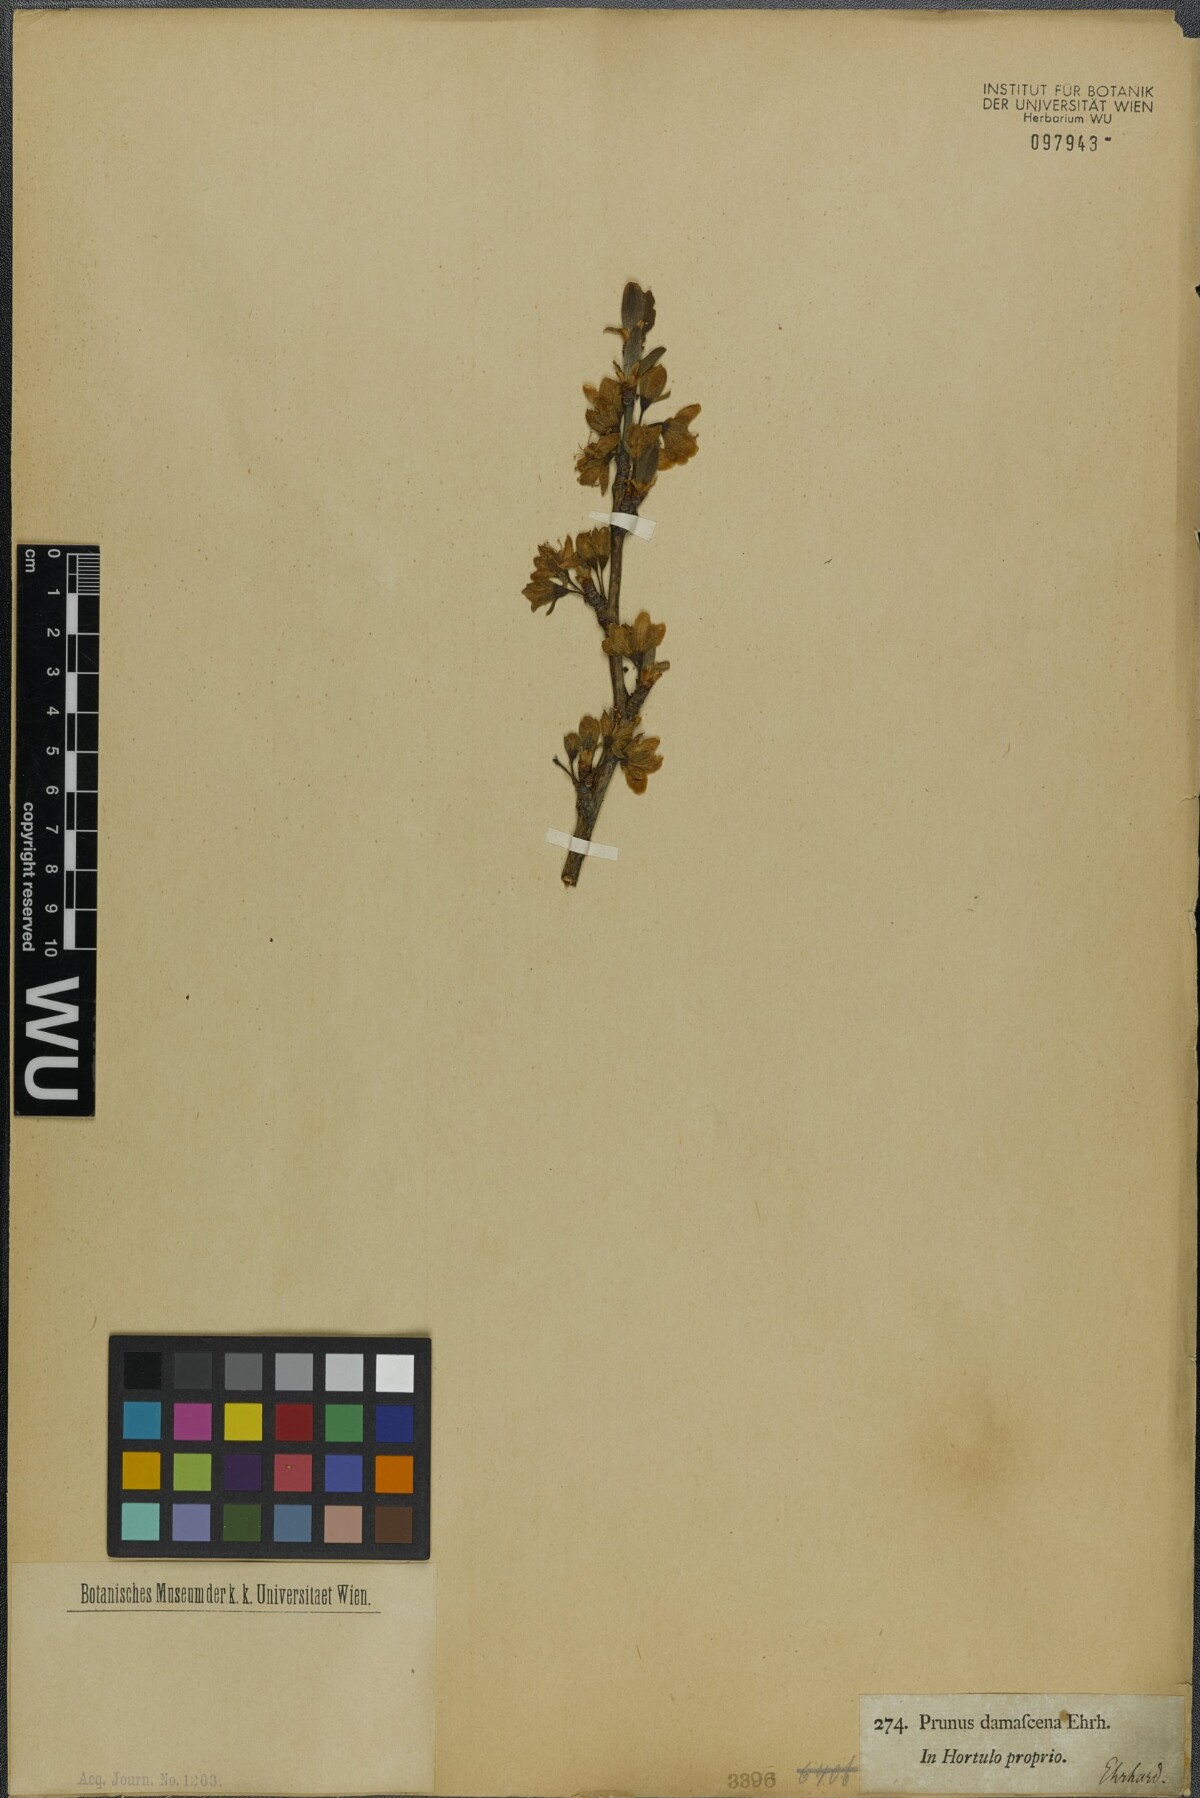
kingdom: Plantae
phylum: Tracheophyta
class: Magnoliopsida
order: Rosales
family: Rosaceae
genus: Prunus
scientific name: Prunus domestica
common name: Wild plum
